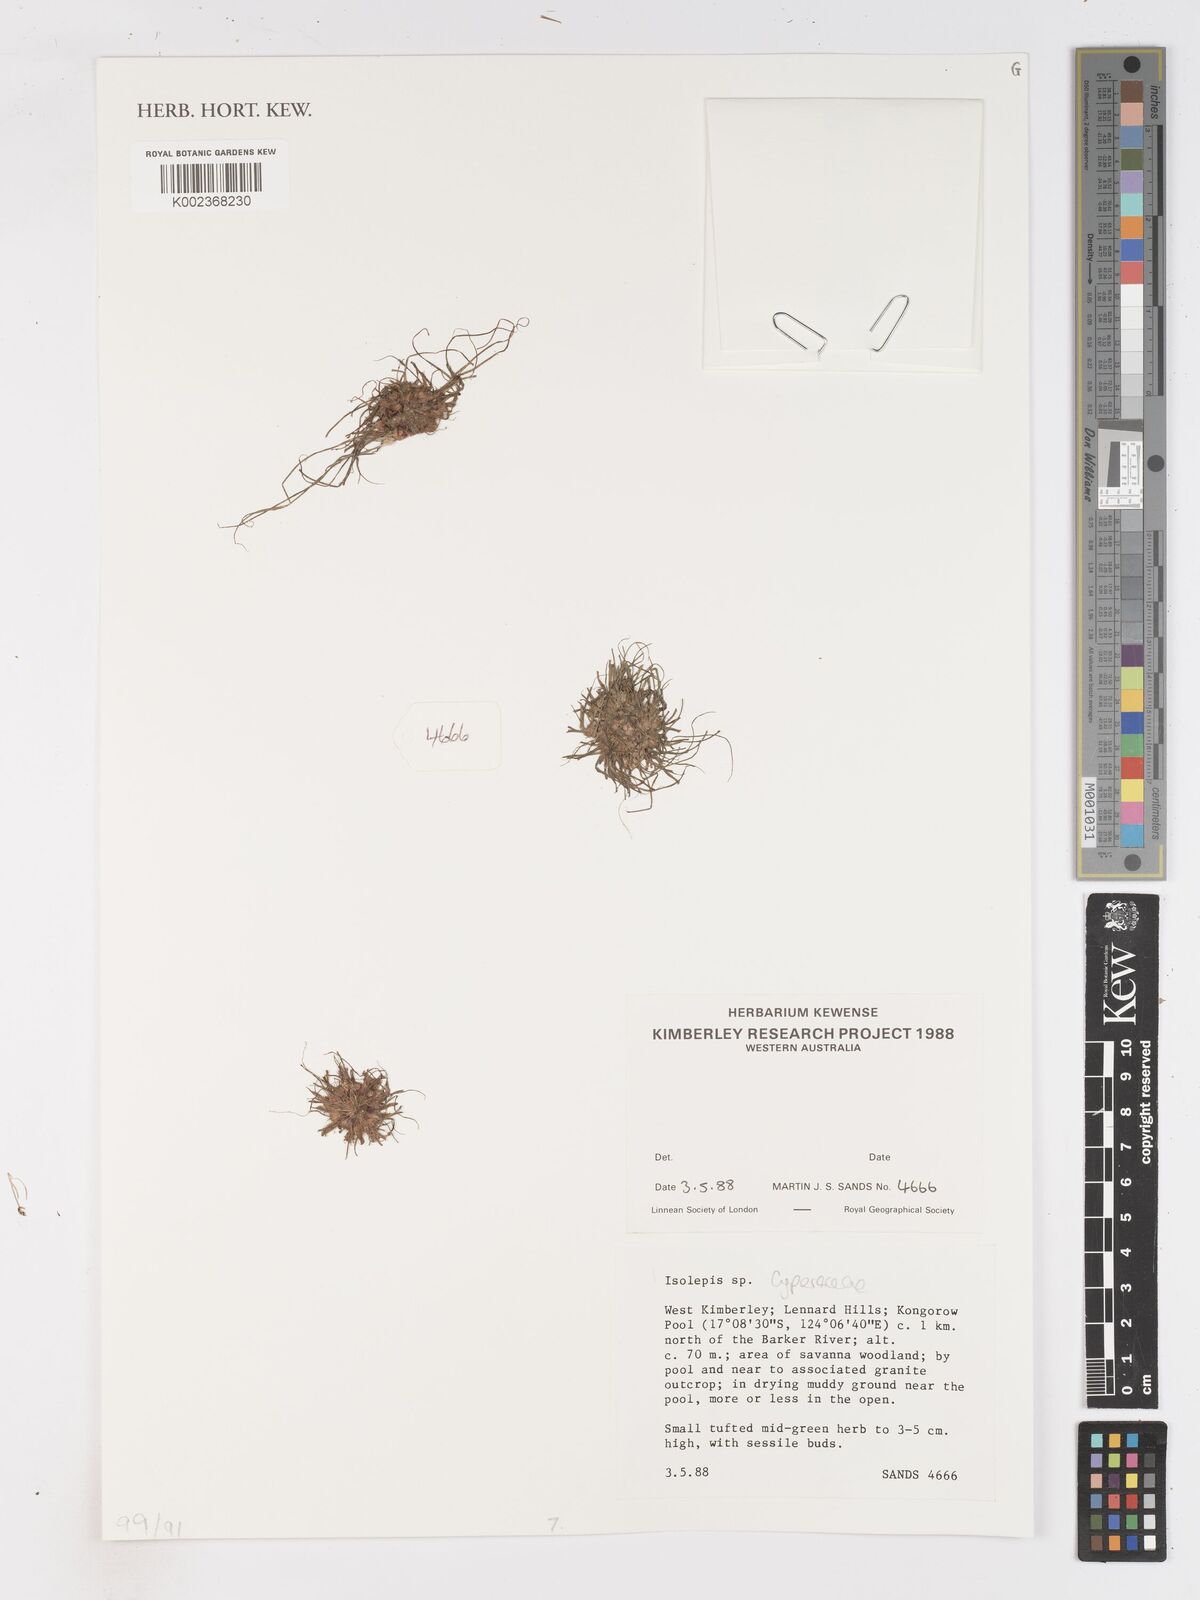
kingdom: Plantae
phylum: Tracheophyta
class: Liliopsida
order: Poales
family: Cyperaceae
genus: Isolepis
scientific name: Isolepis
